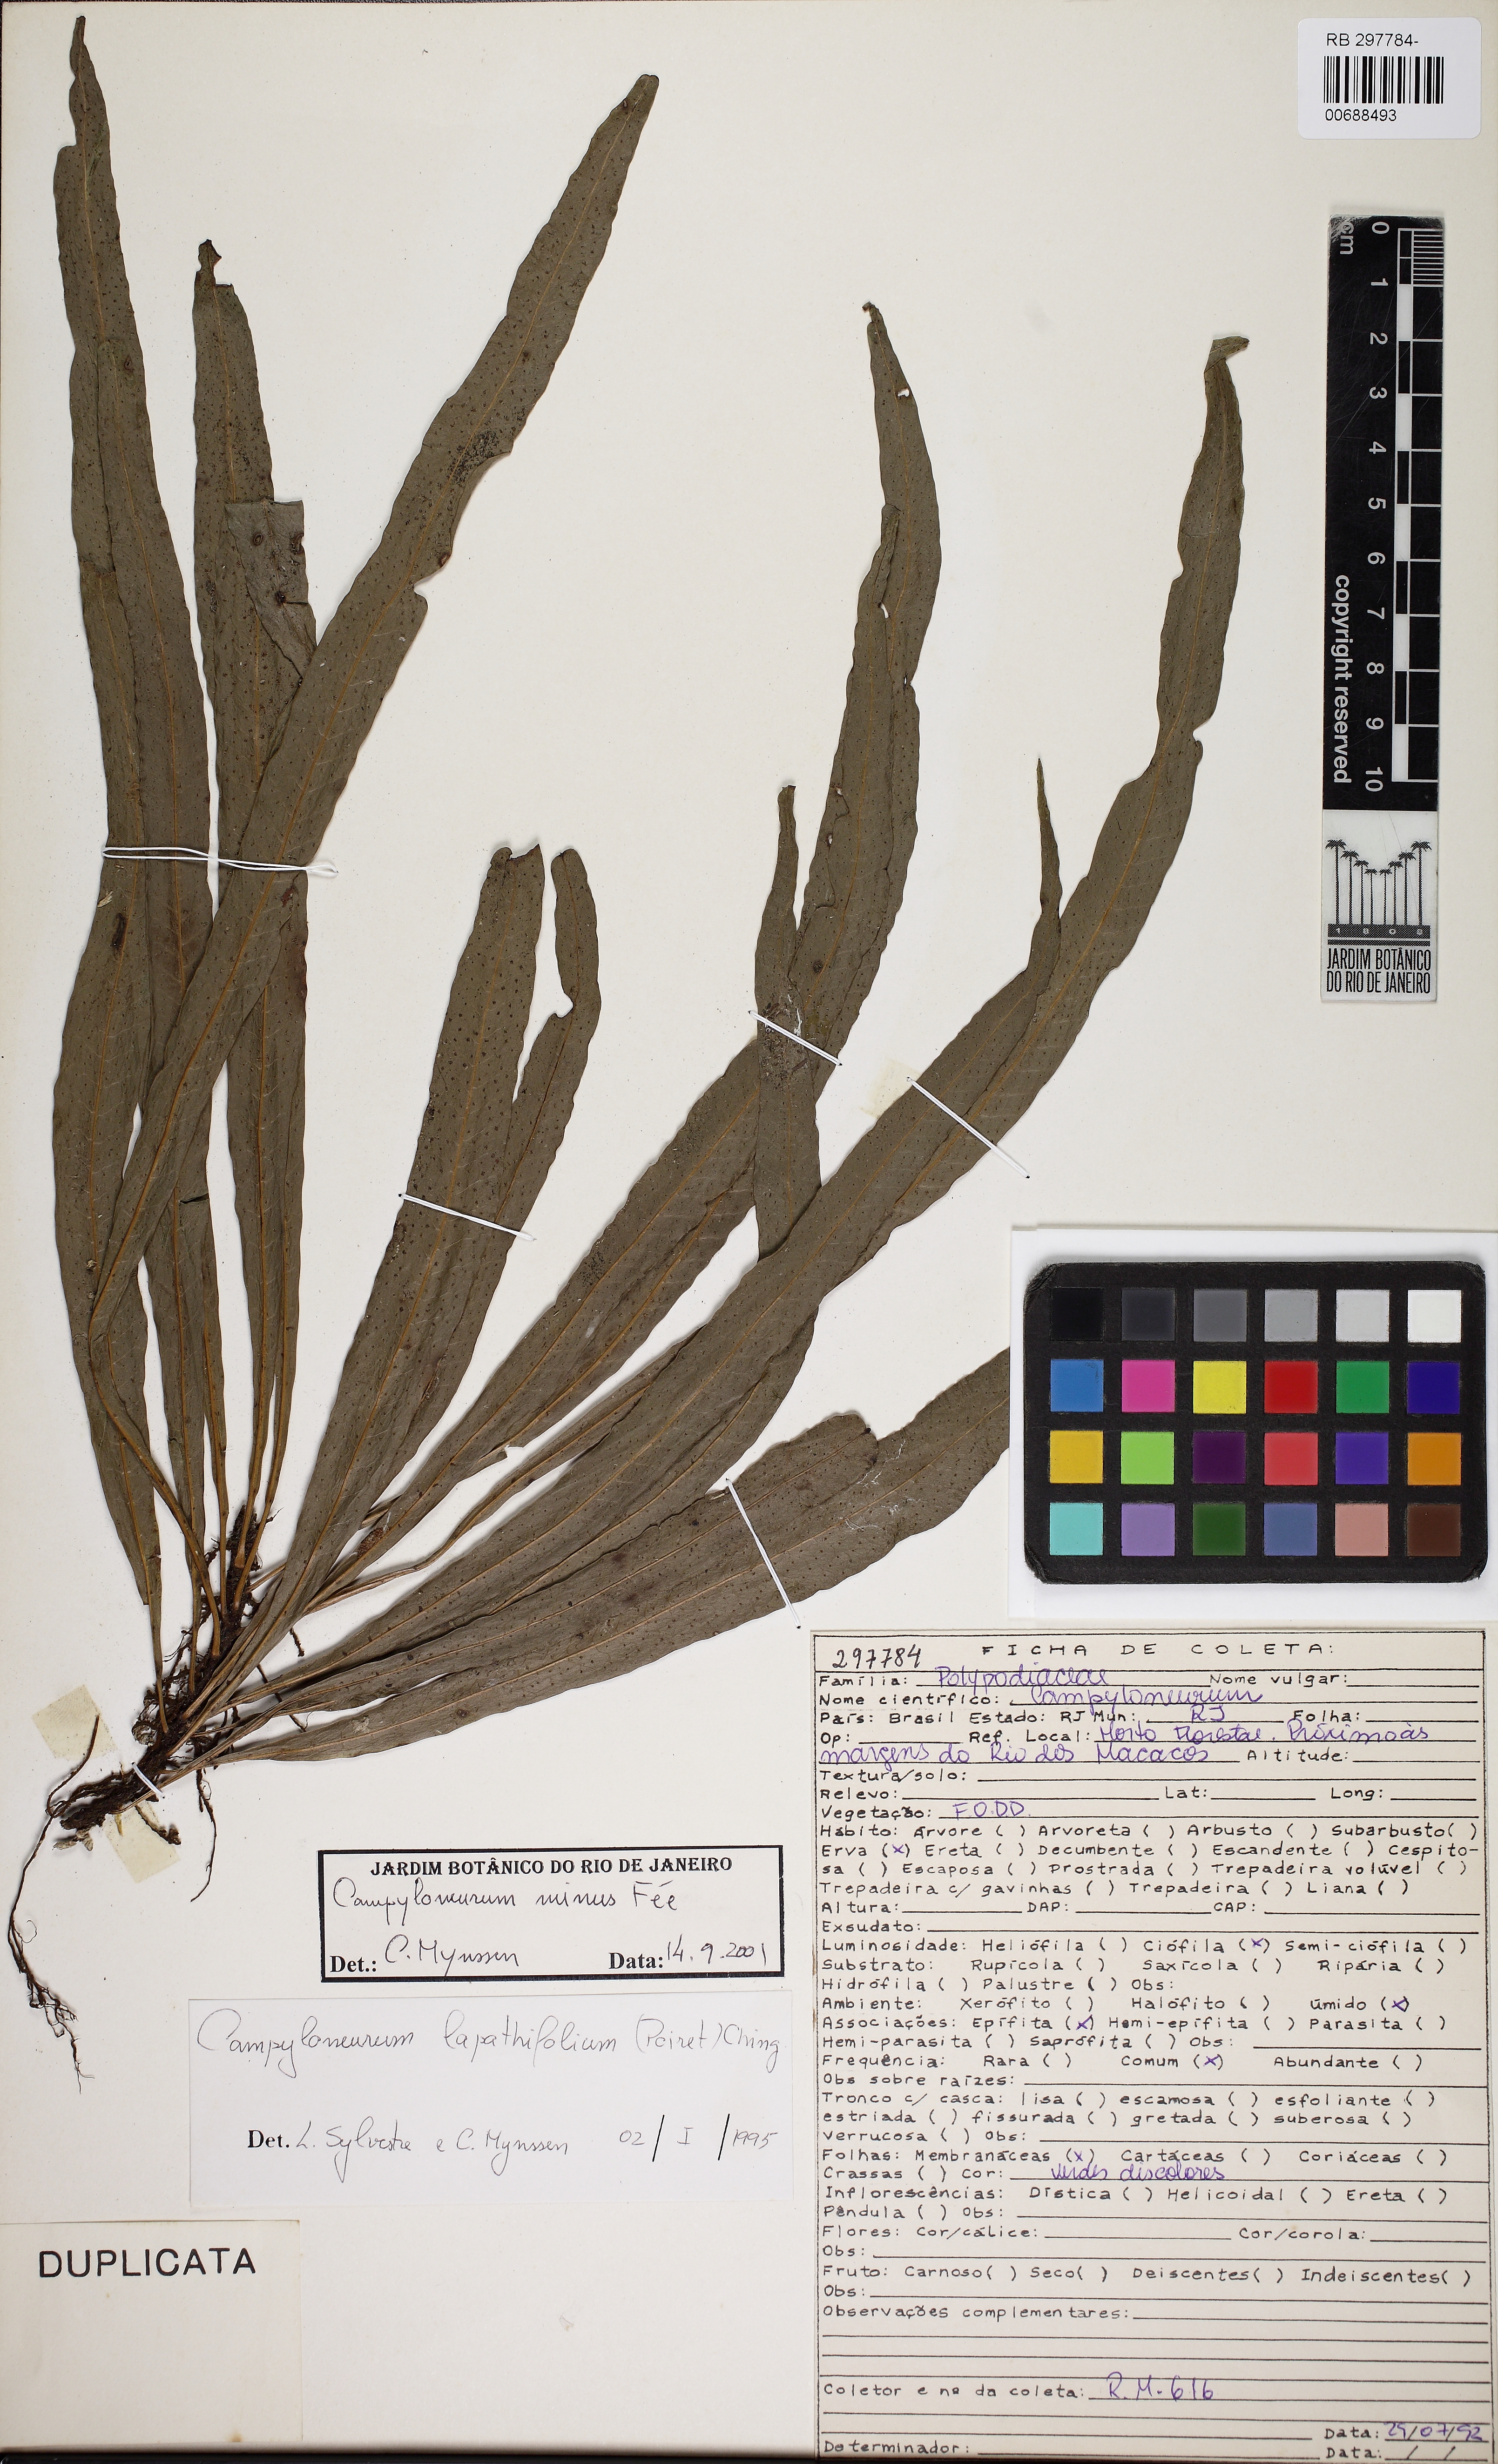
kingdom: Plantae
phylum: Tracheophyta
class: Polypodiopsida
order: Polypodiales
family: Polypodiaceae
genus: Campyloneurum
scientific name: Campyloneurum herbaceum
